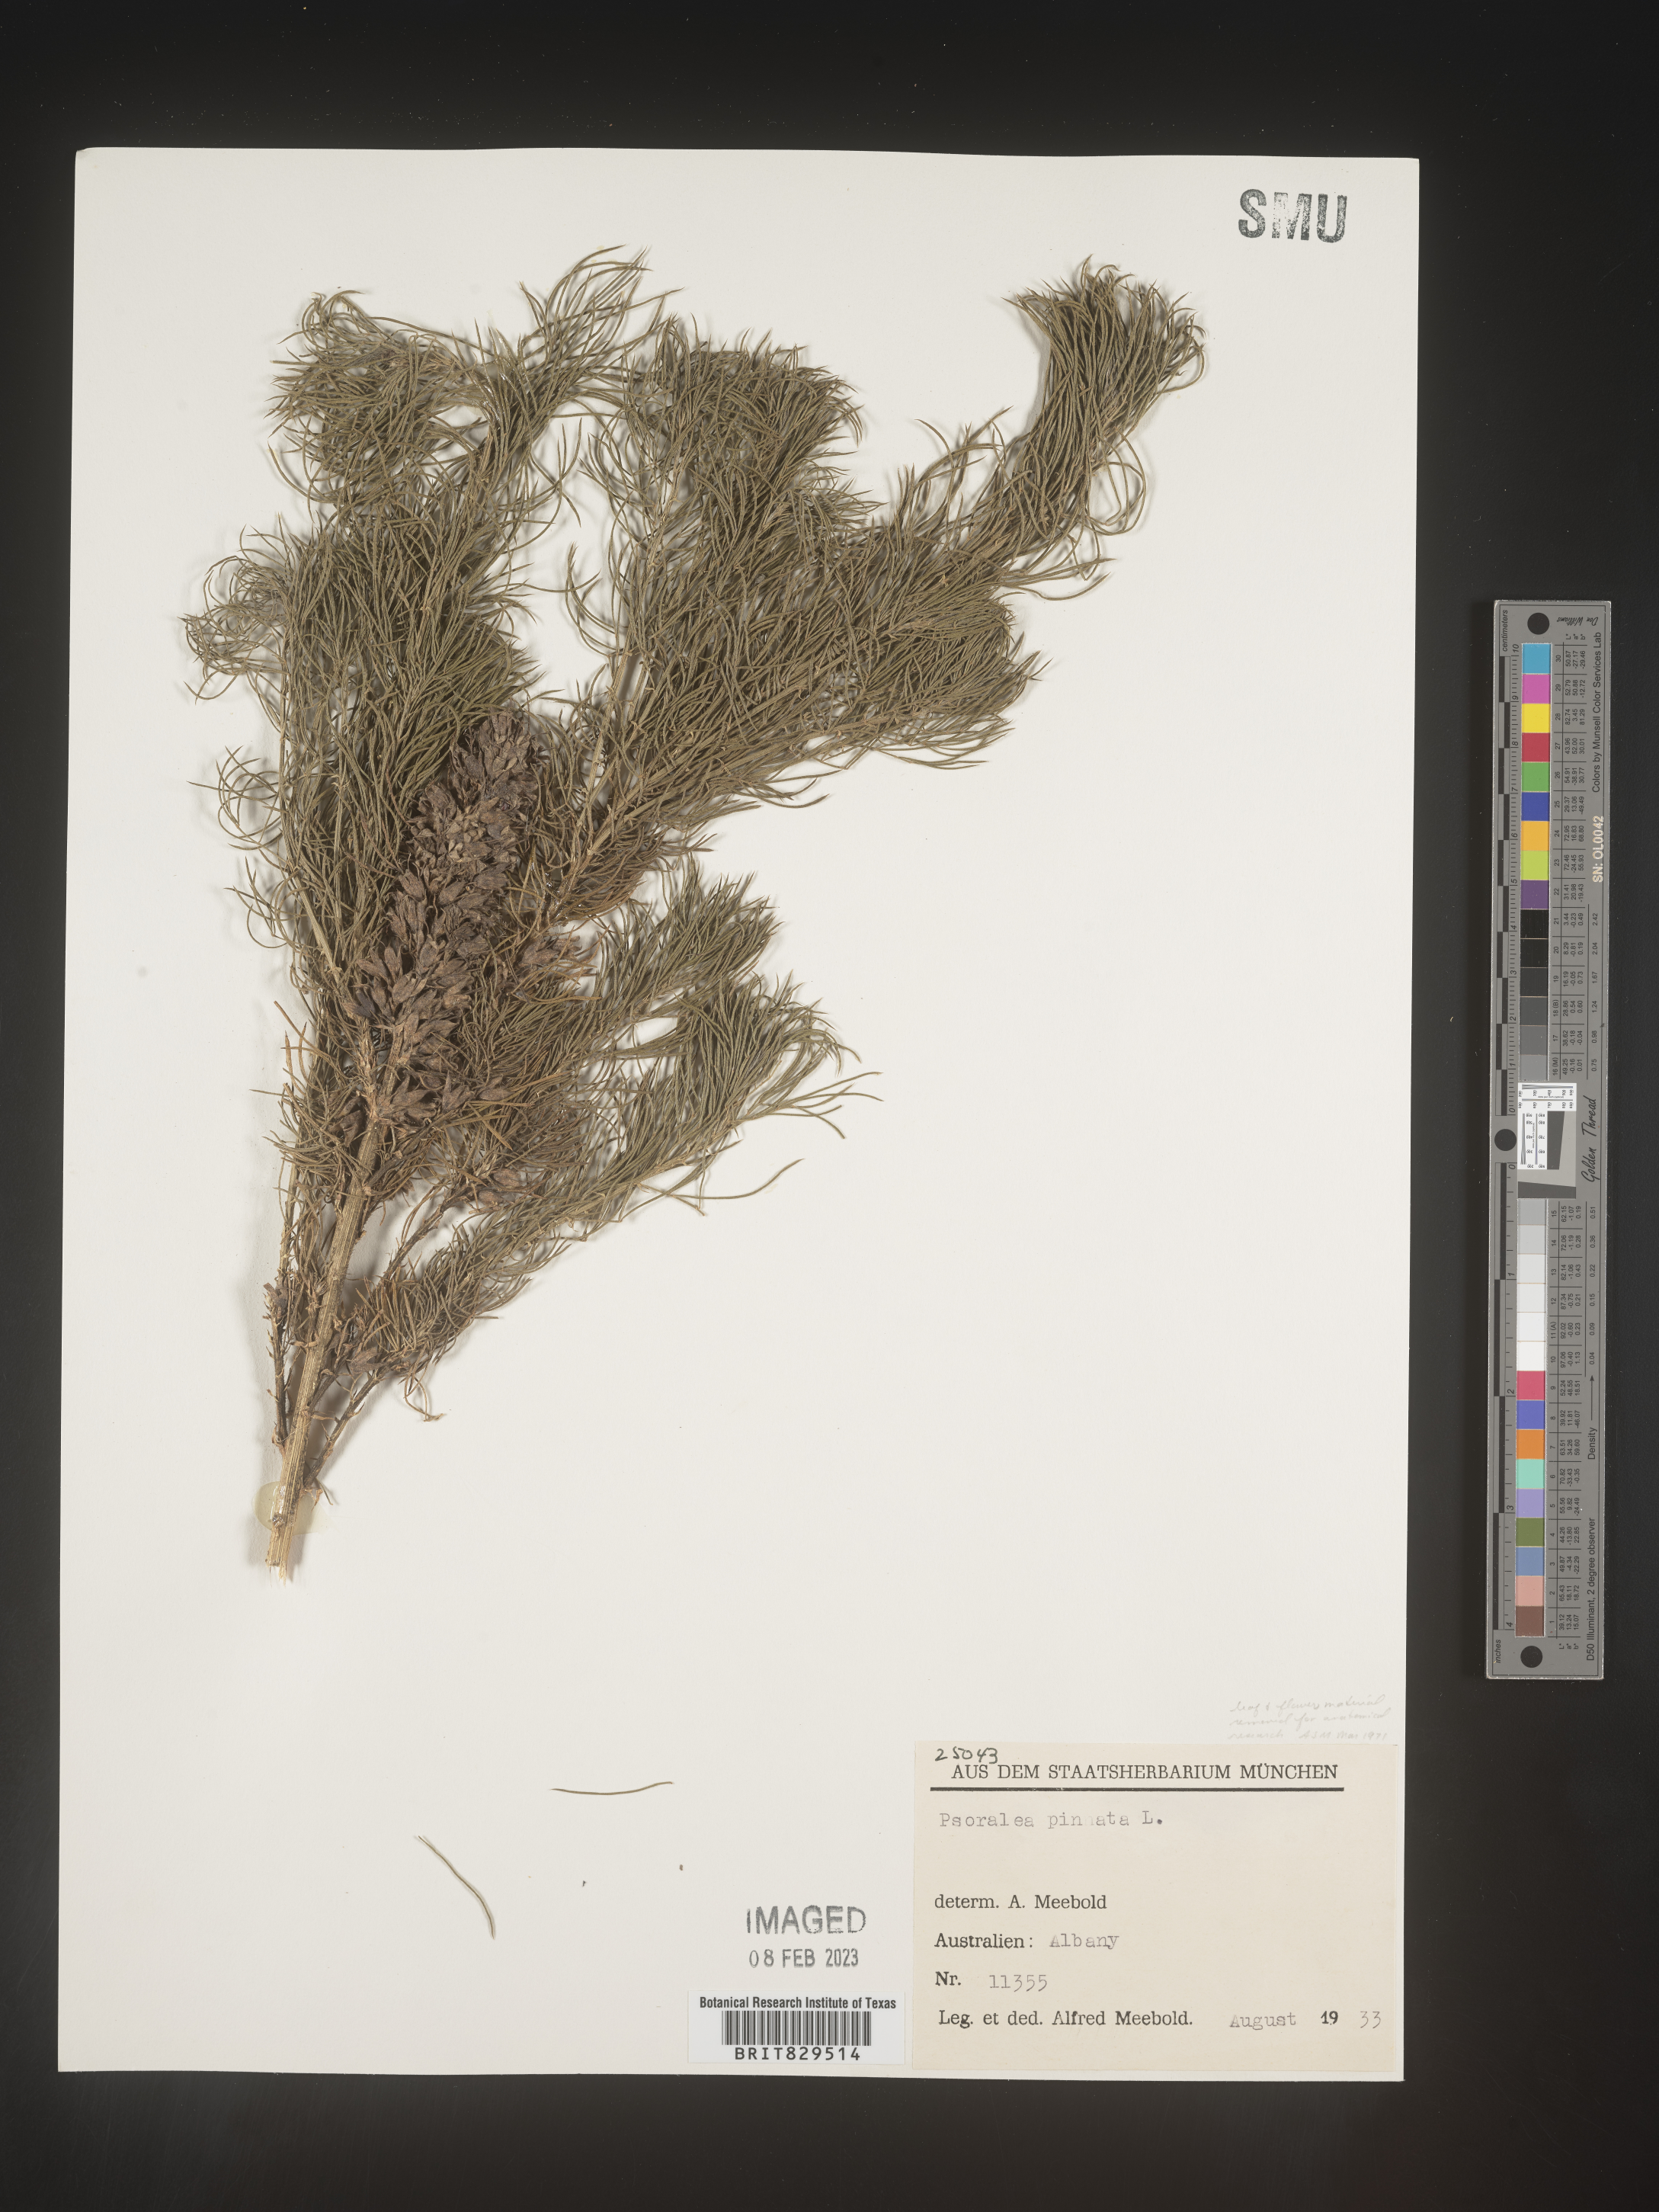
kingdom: Plantae
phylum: Tracheophyta
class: Magnoliopsida
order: Fabales
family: Fabaceae
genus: Psoralea
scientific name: Psoralea
